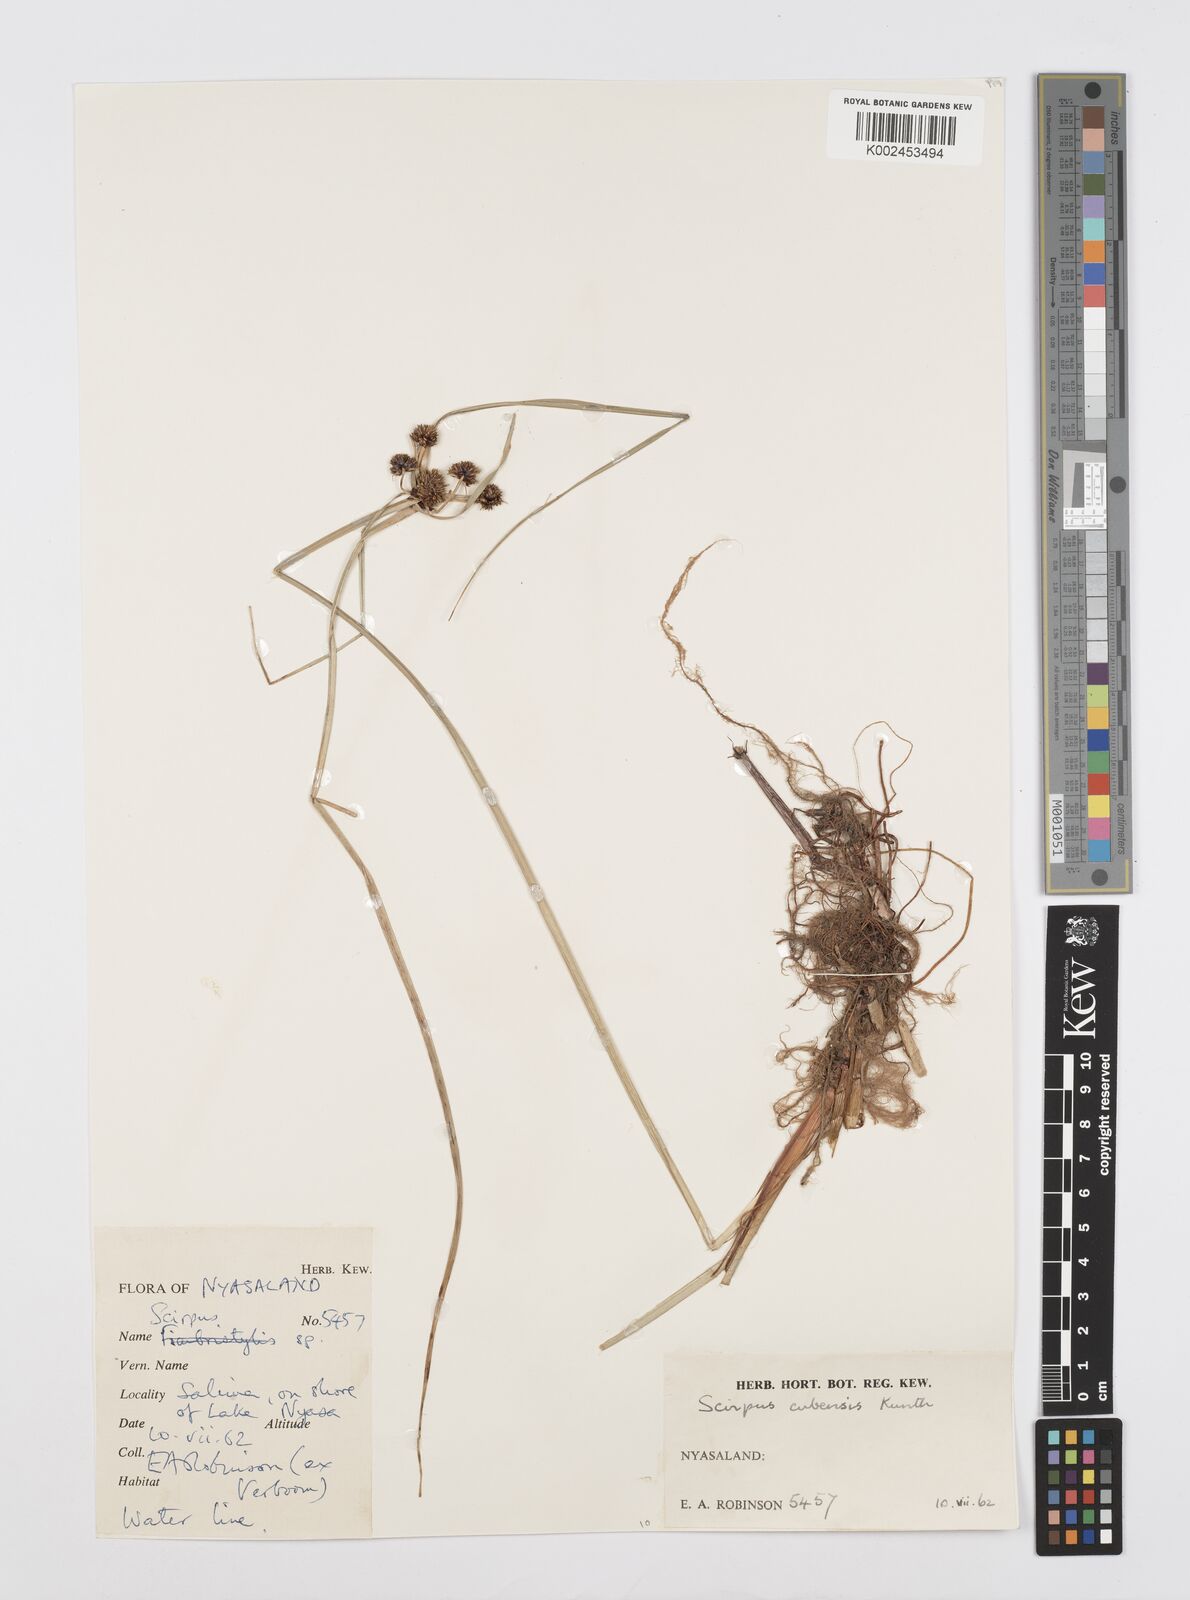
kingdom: Plantae
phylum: Tracheophyta
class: Liliopsida
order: Poales
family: Cyperaceae
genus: Cyperus
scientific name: Cyperus elegans
